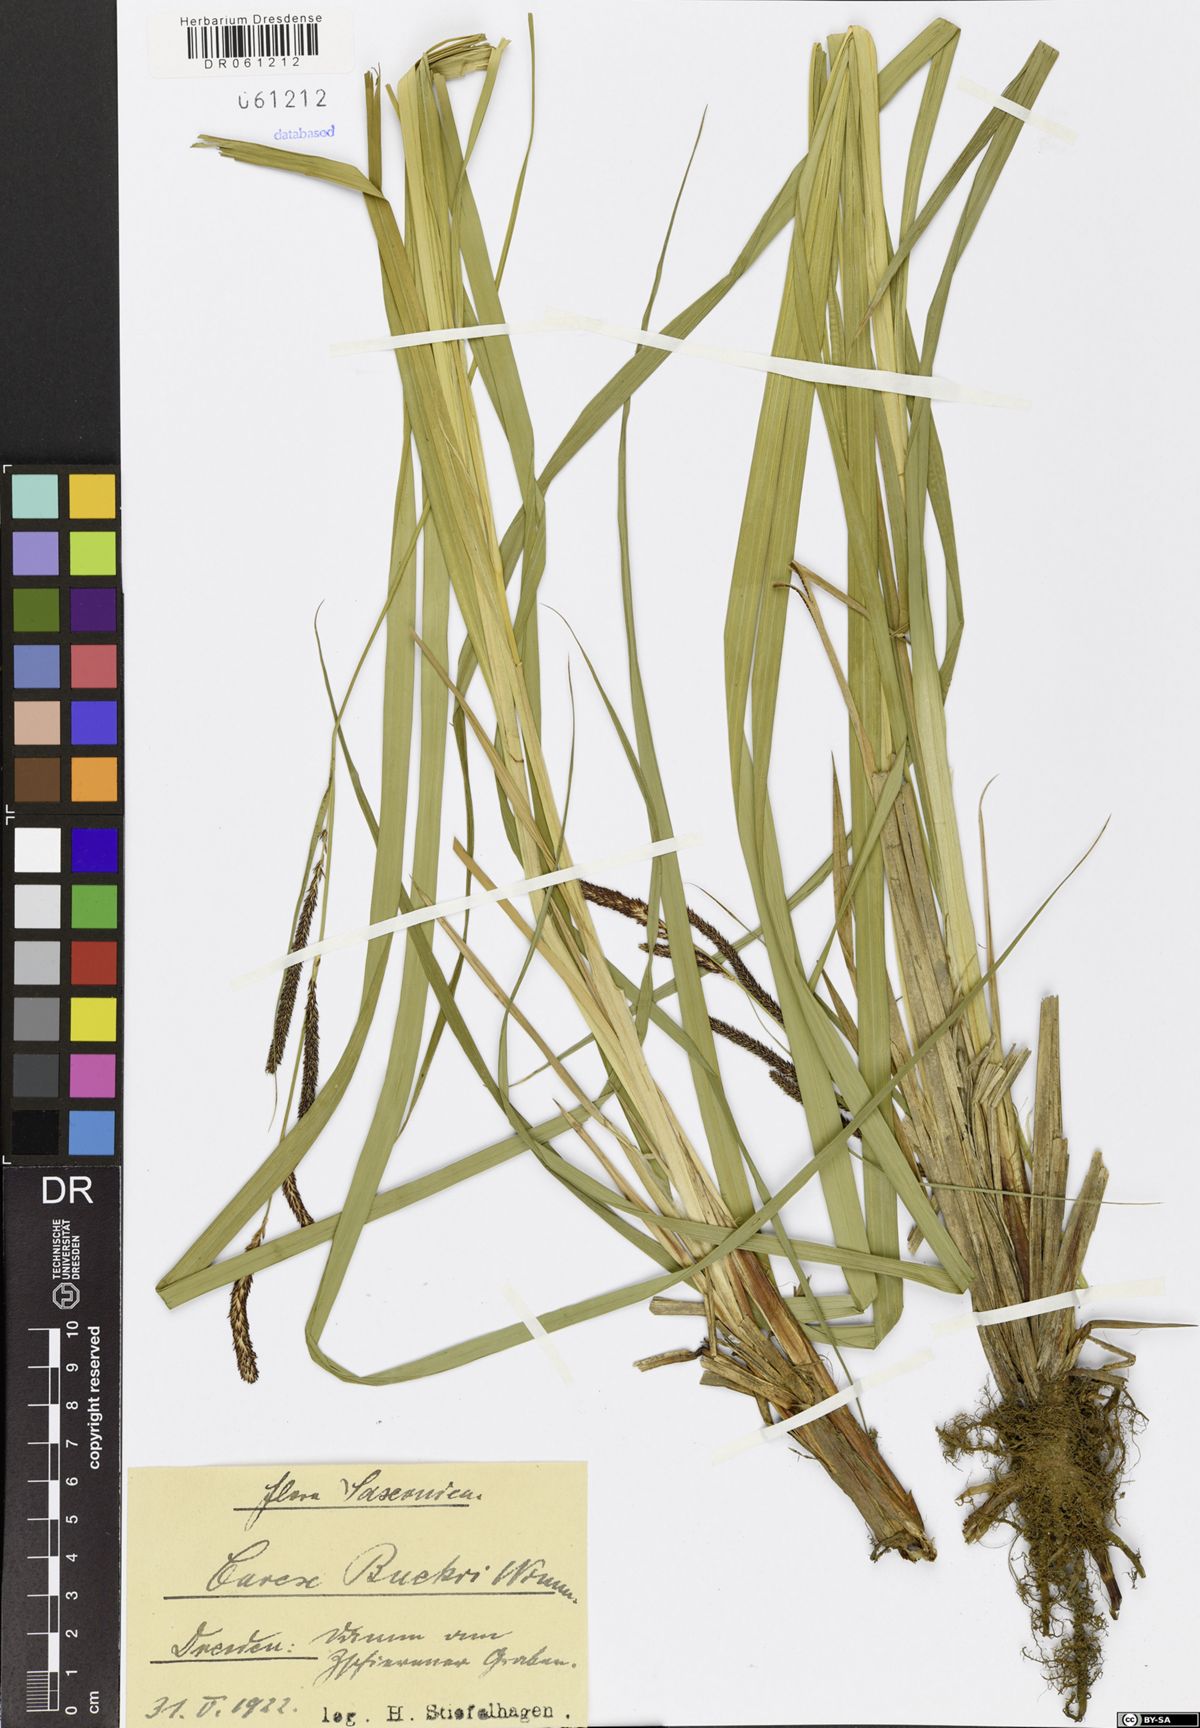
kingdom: Plantae
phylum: Tracheophyta
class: Liliopsida
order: Poales
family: Cyperaceae
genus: Carex
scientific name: Carex buekii
